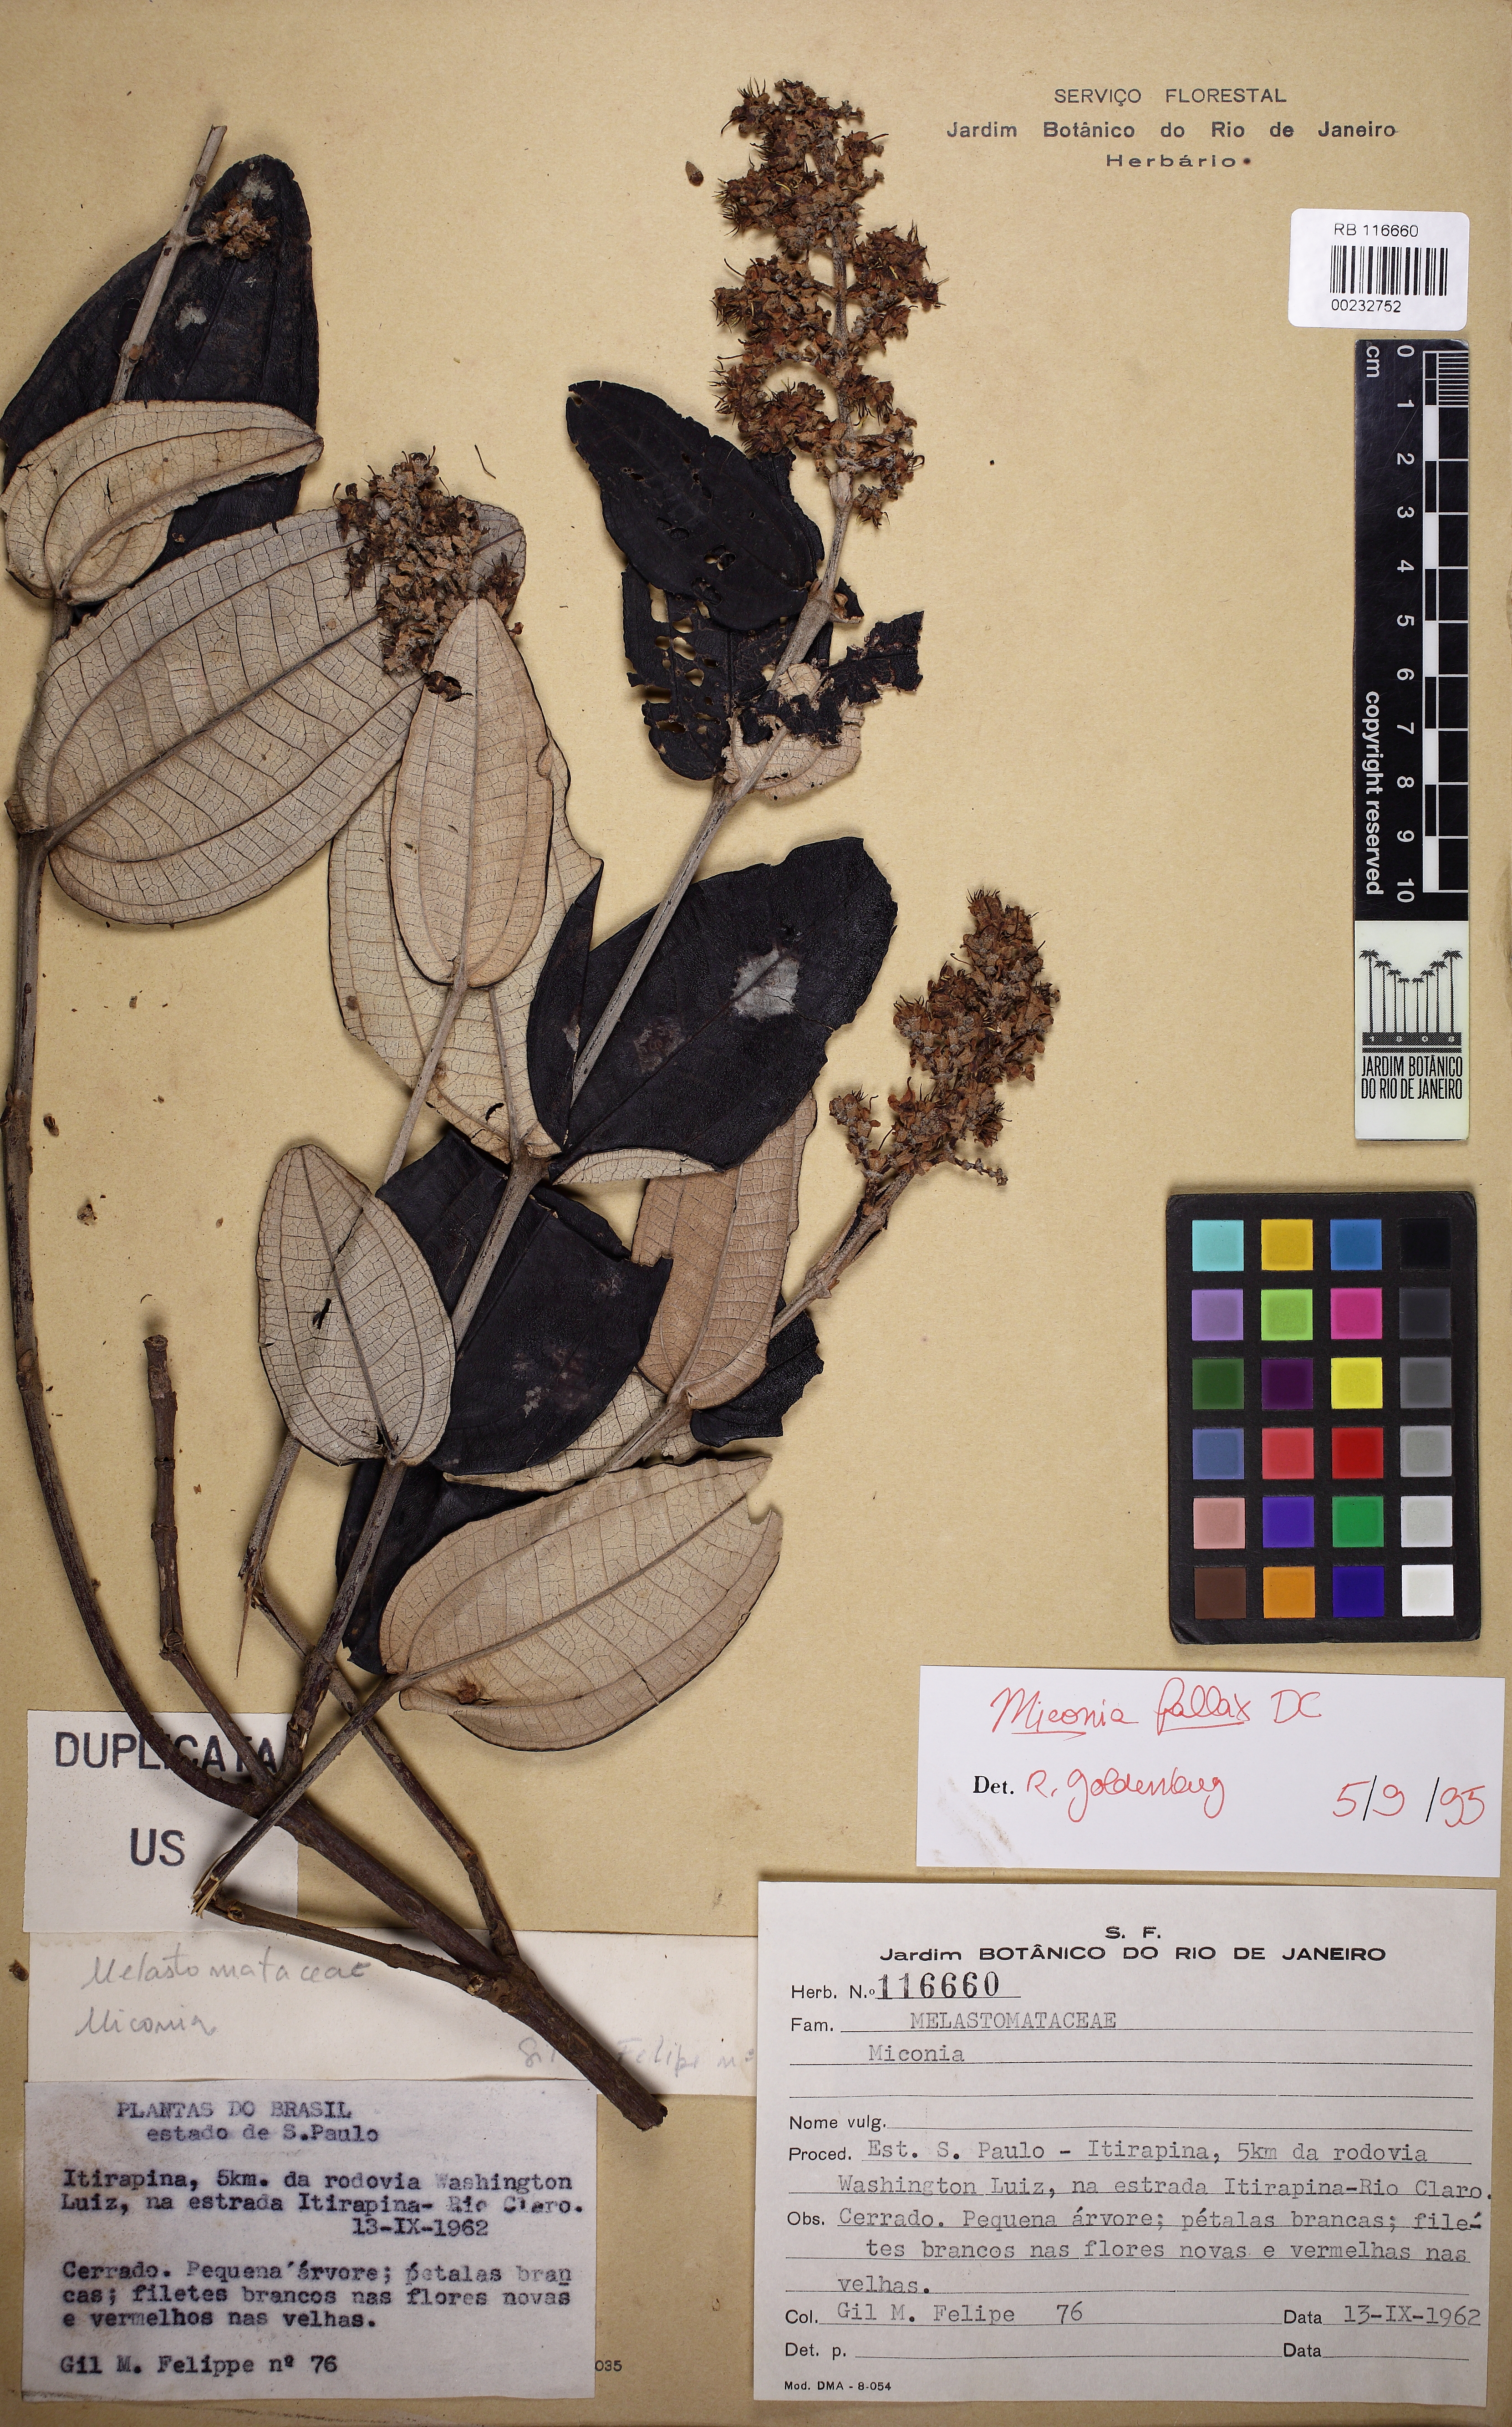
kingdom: Plantae
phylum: Tracheophyta
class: Magnoliopsida
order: Myrtales
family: Melastomataceae
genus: Miconia
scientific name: Miconia fallax
